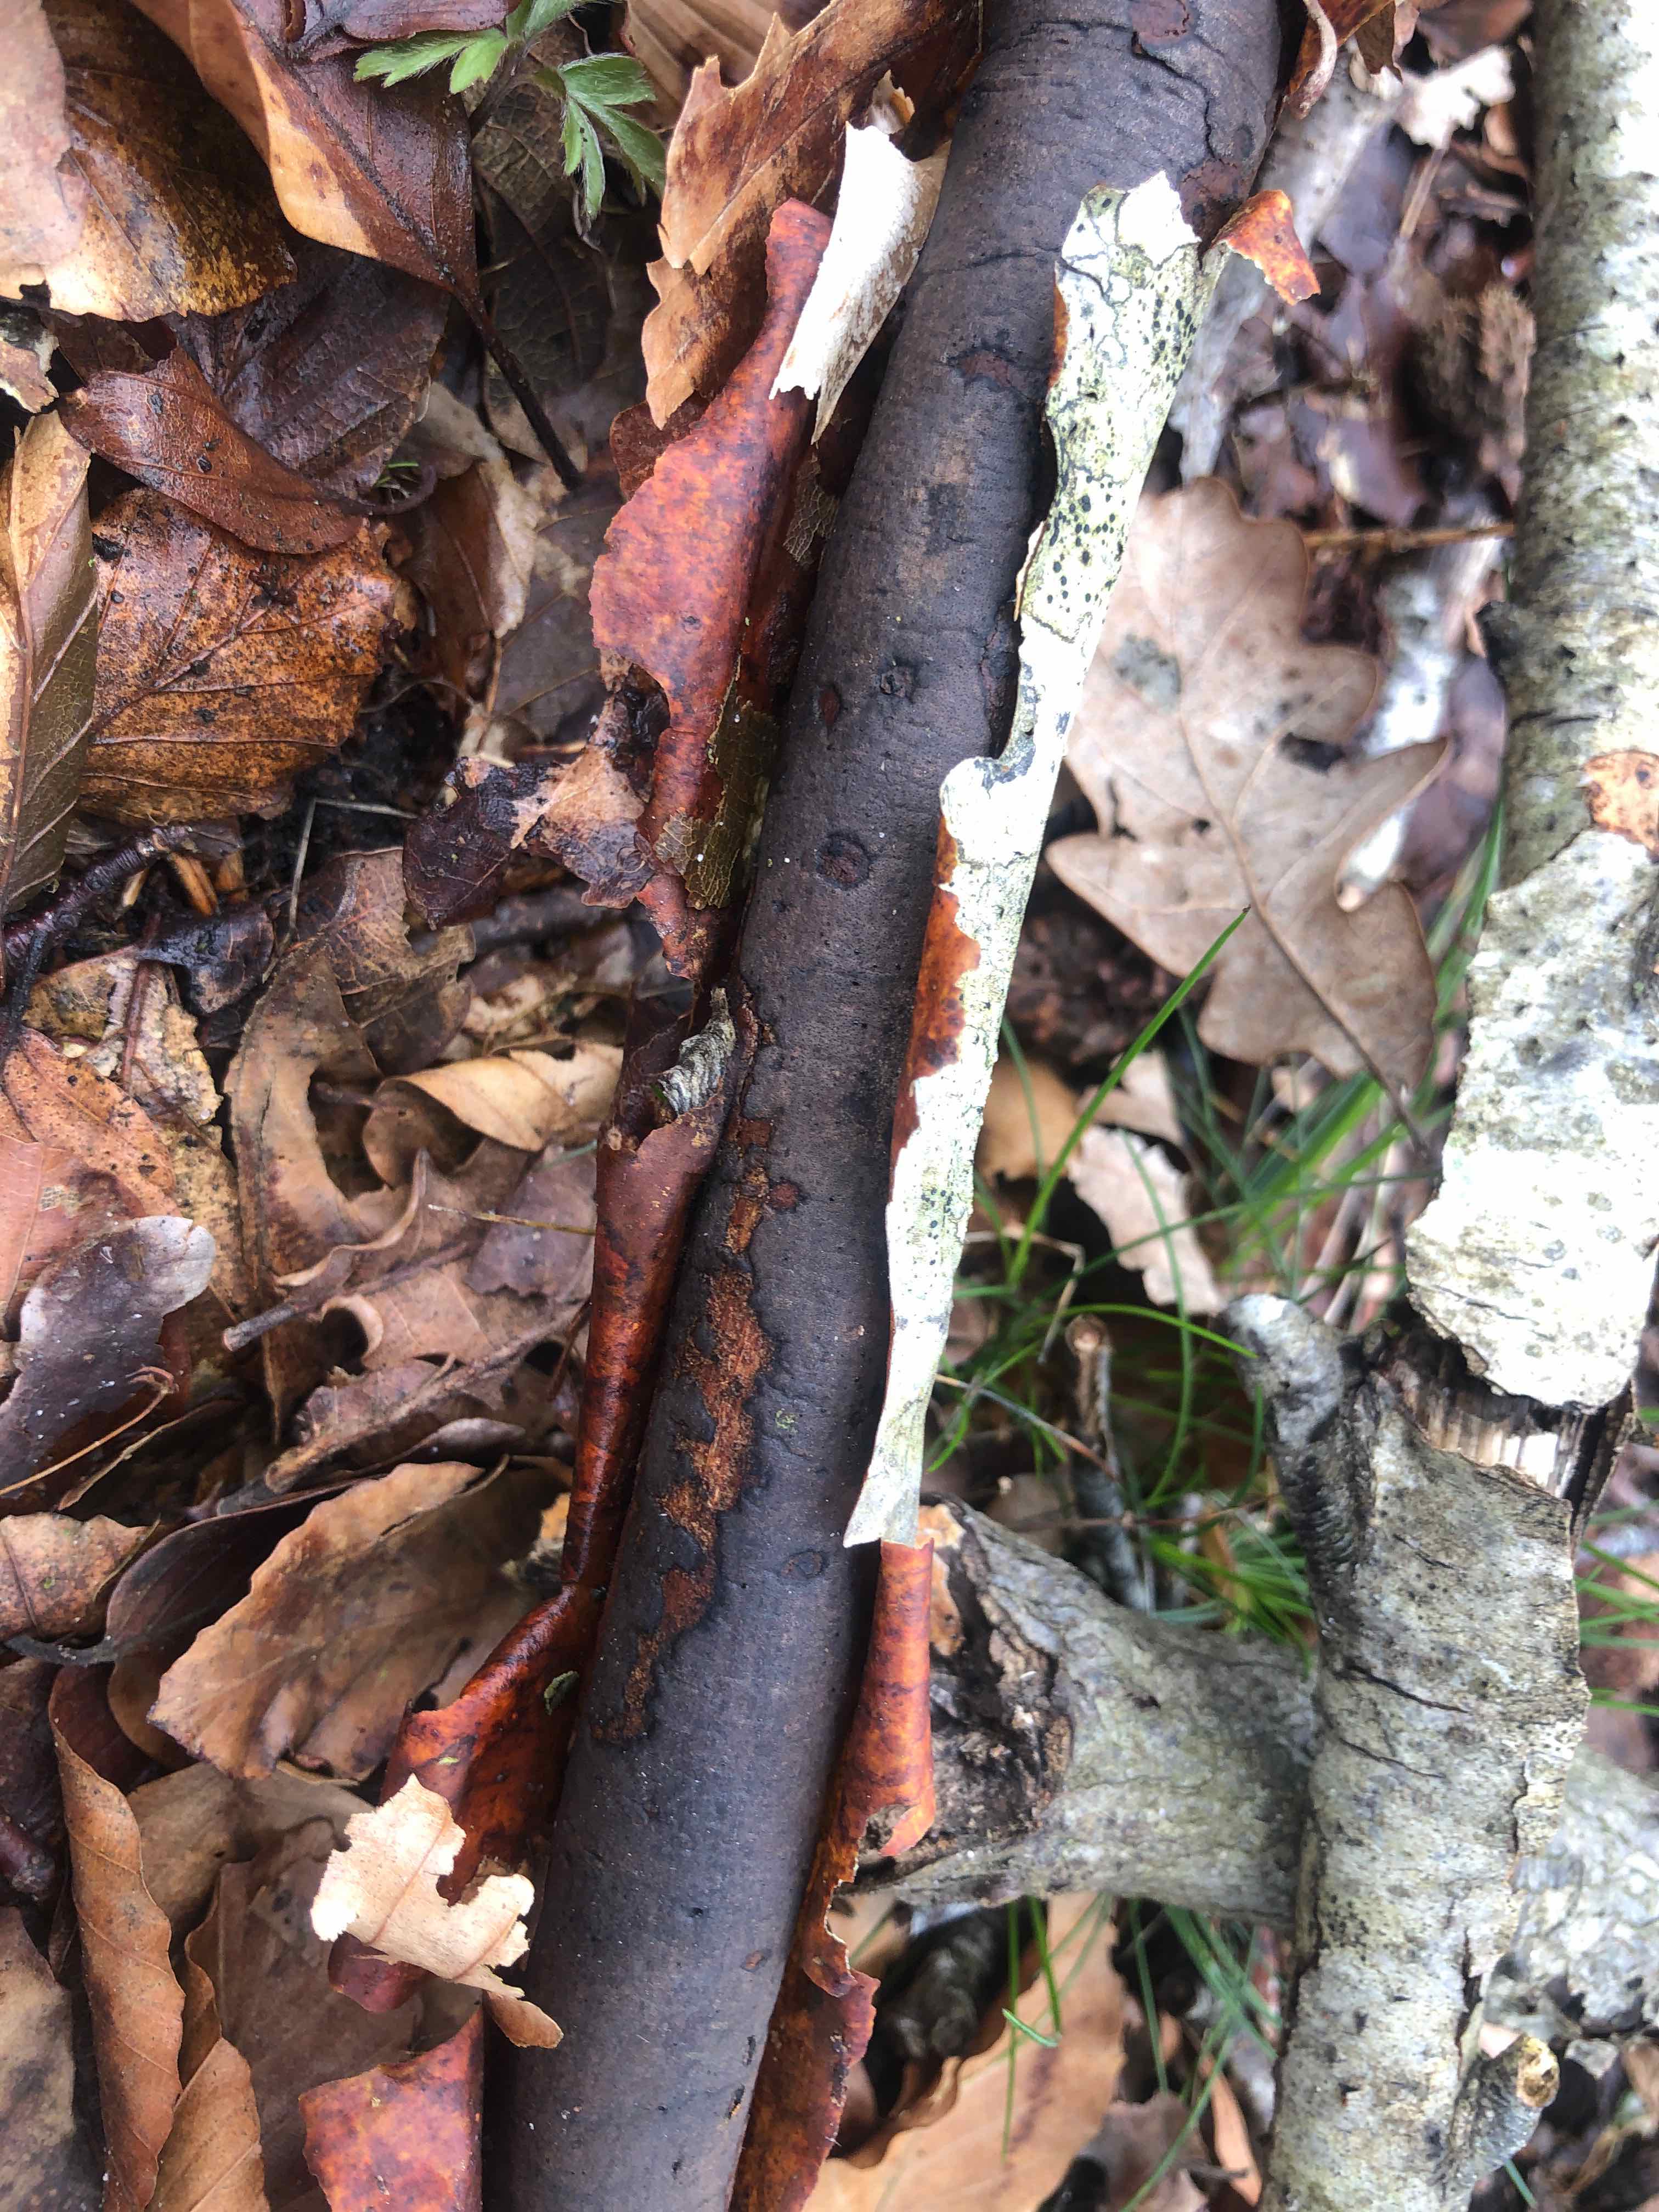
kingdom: Fungi
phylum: Ascomycota
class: Sordariomycetes
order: Xylariales
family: Diatrypaceae
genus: Diatrype
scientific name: Diatrype decorticata
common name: barksprænger-kulskorpe
